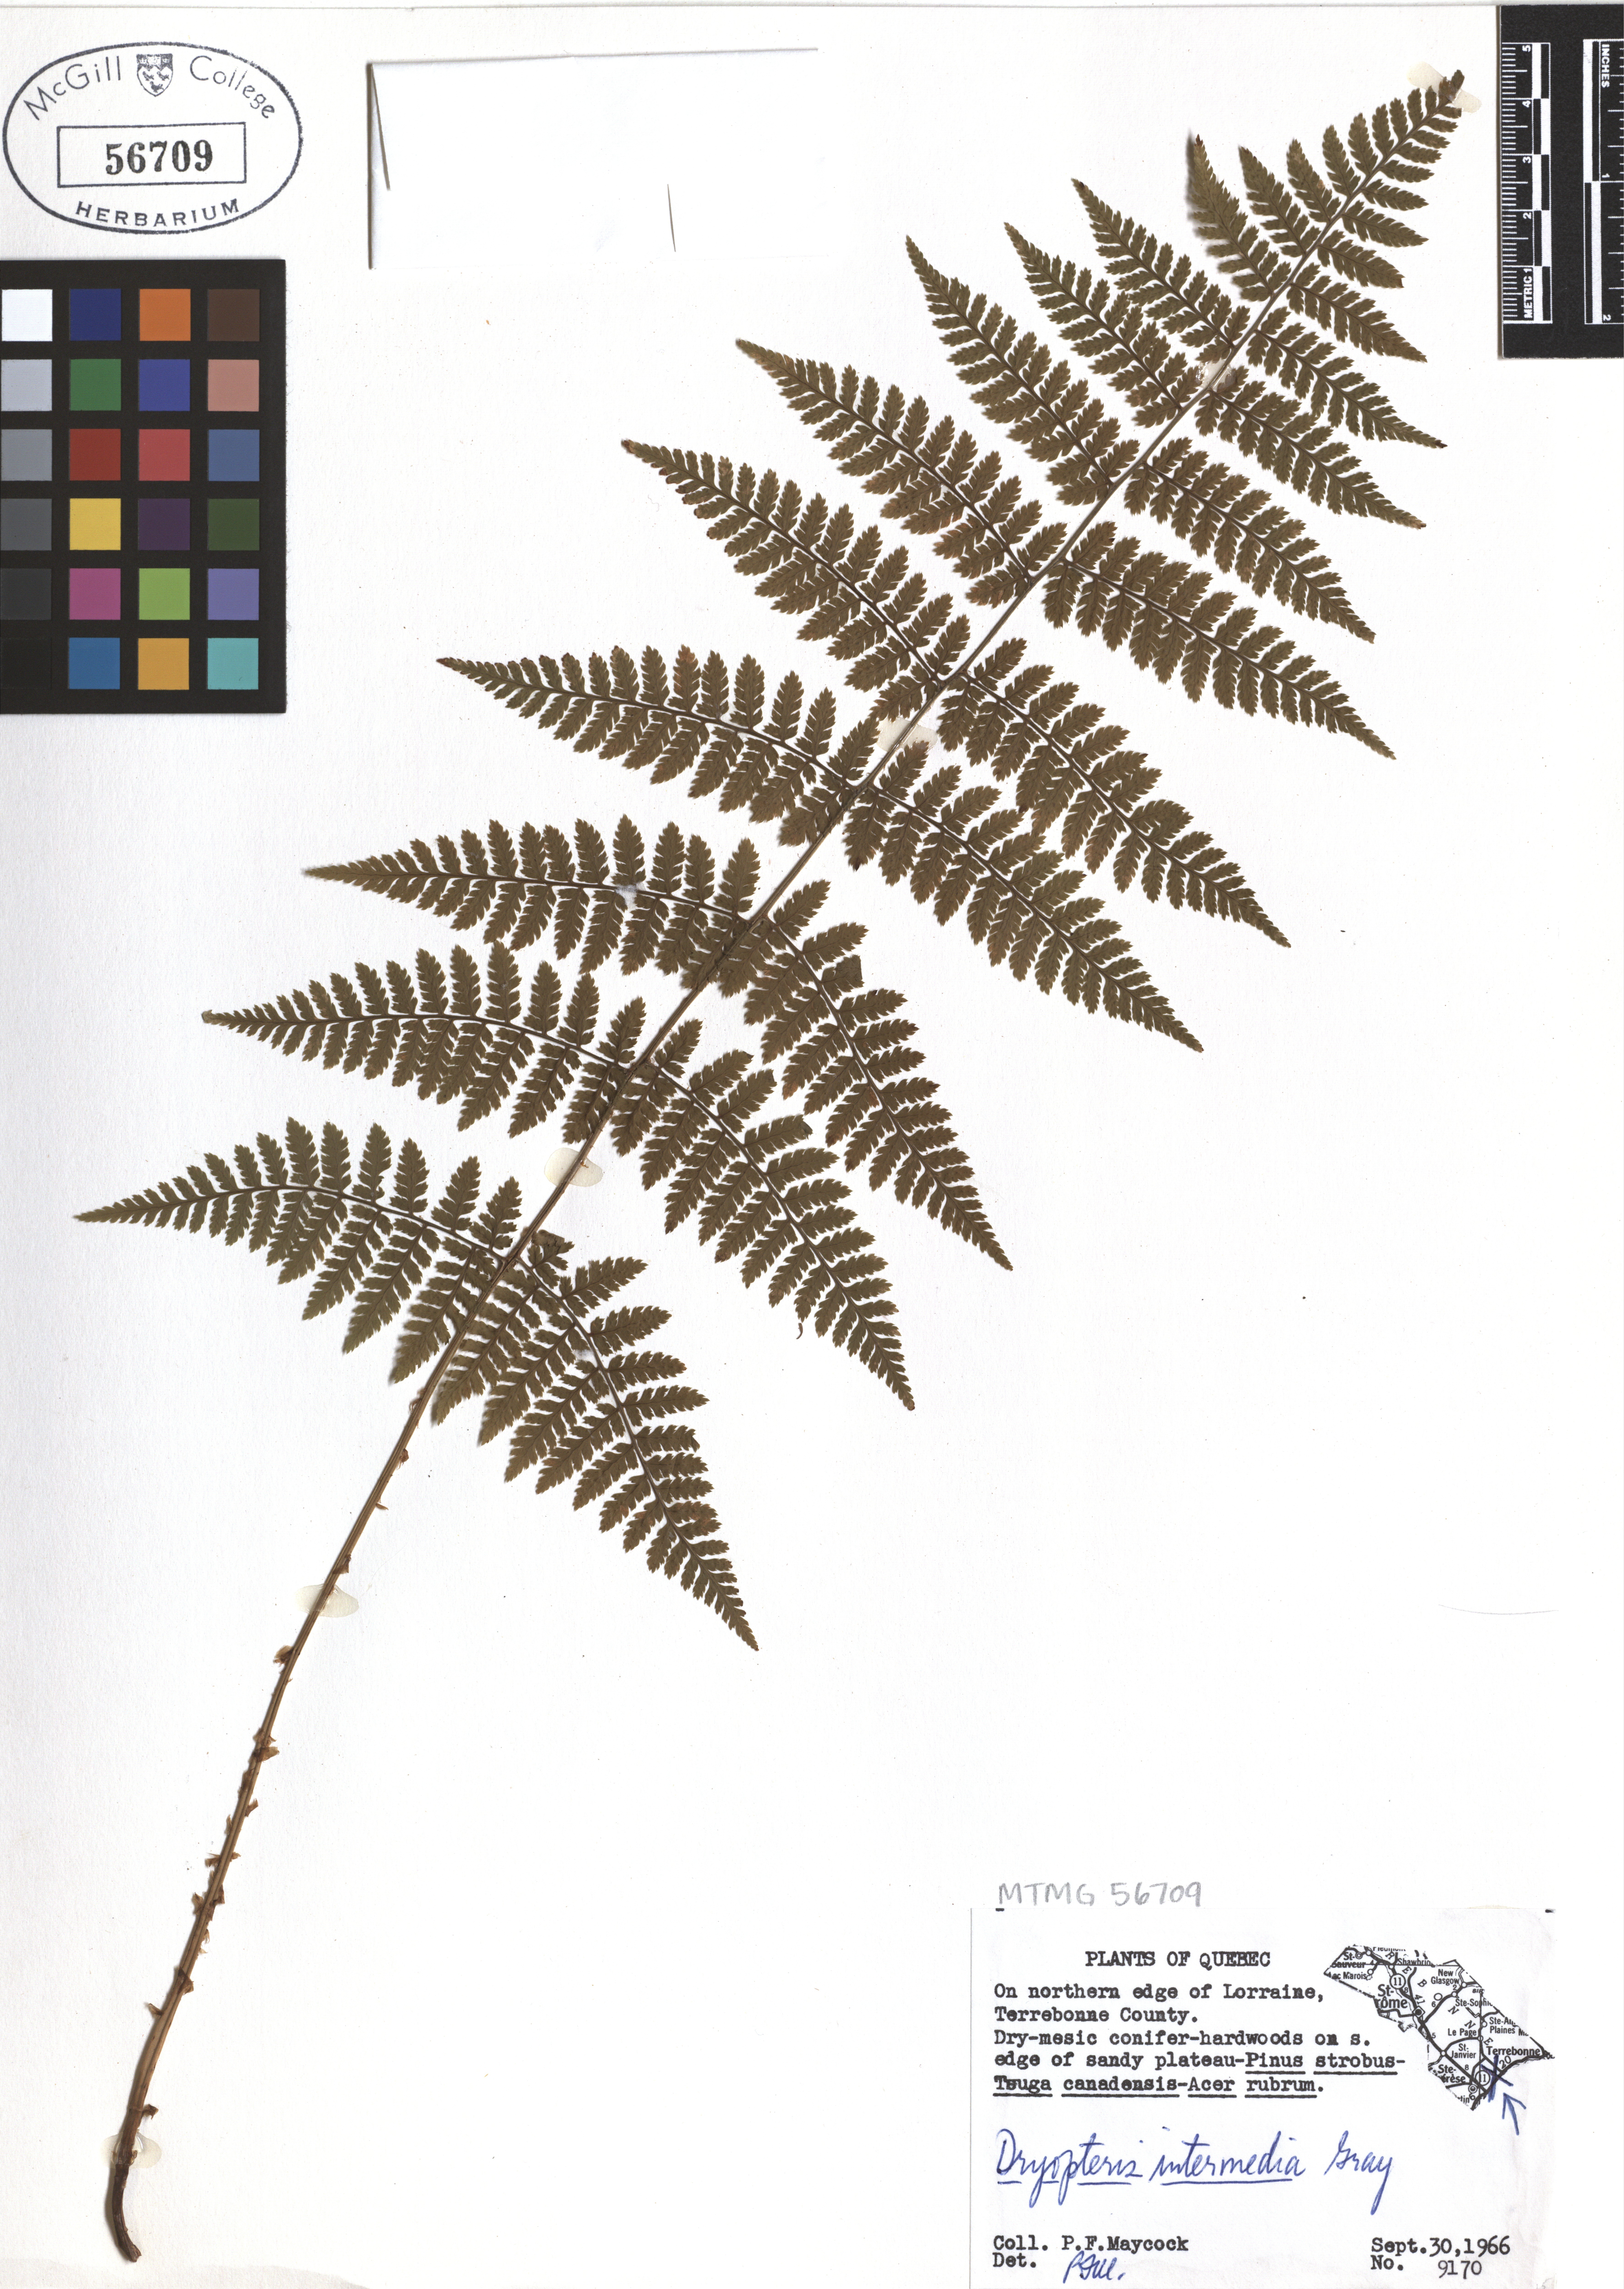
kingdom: Plantae
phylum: Tracheophyta
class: Polypodiopsida
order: Polypodiales
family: Dryopteridaceae
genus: Dryopteris
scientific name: Dryopteris intermedia
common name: Evergreen wood fern
